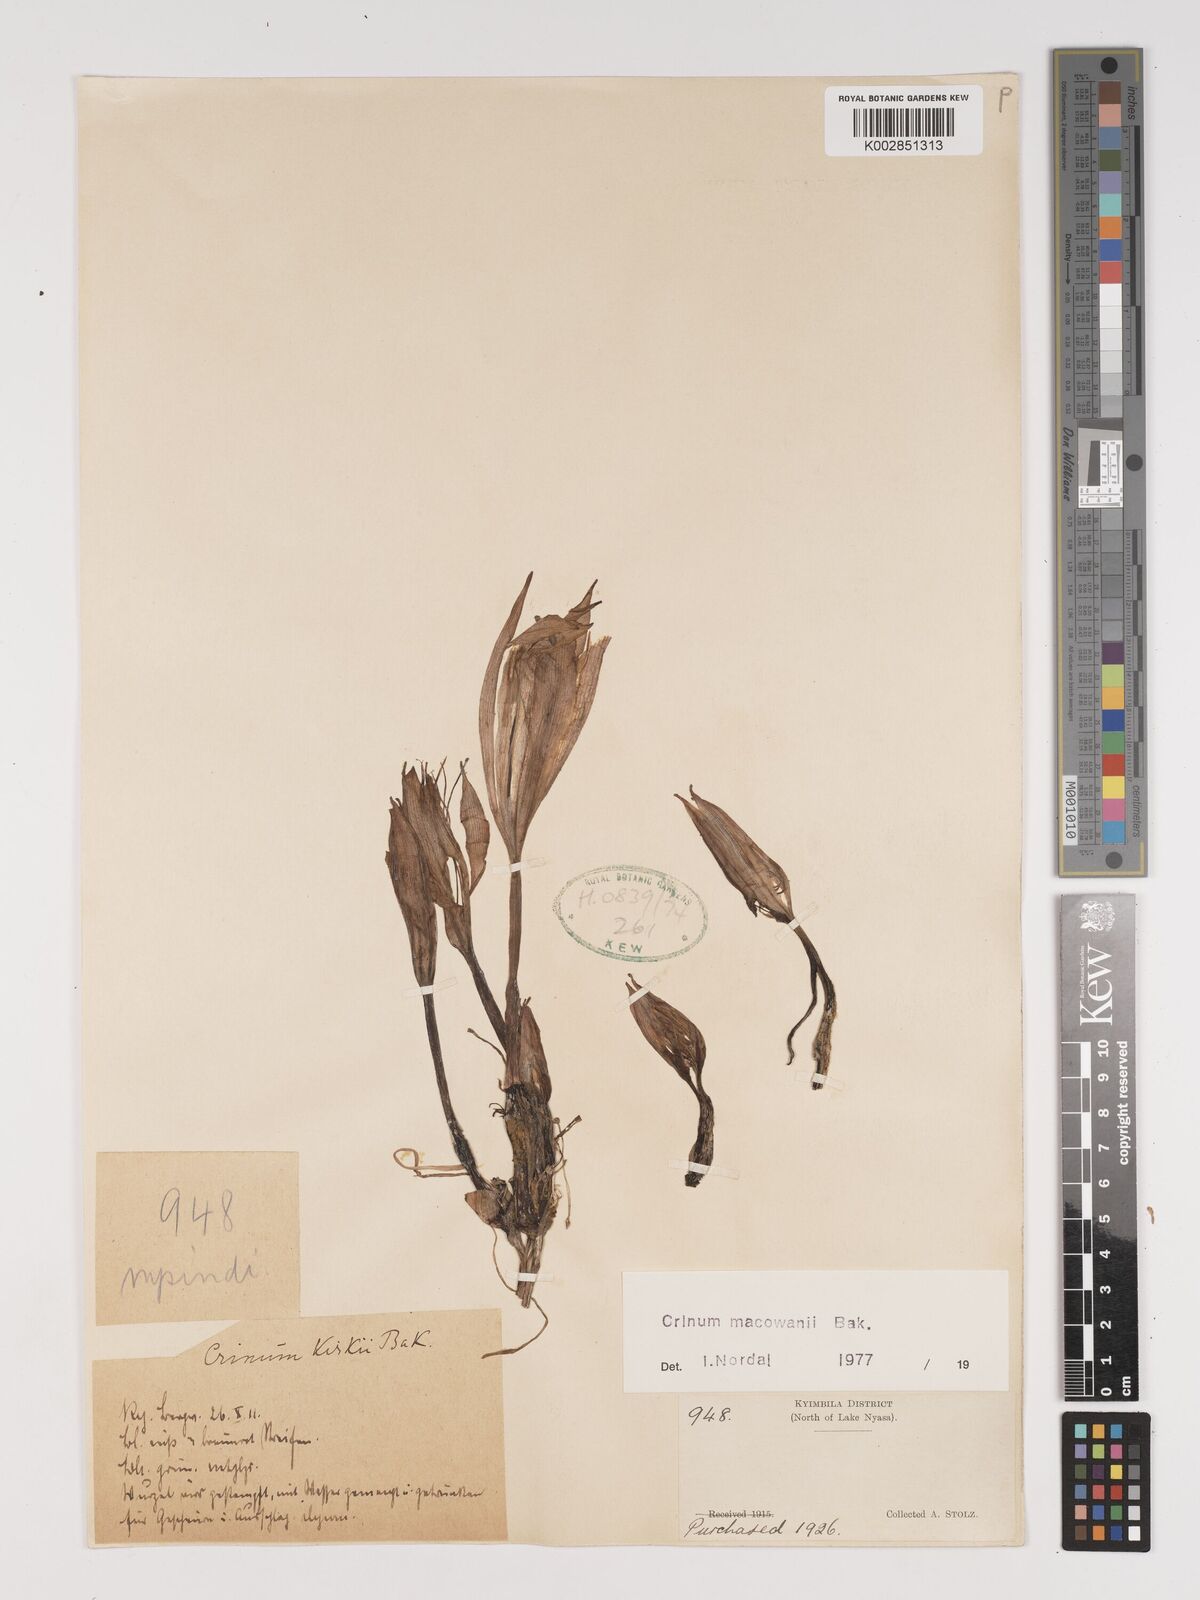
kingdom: Plantae
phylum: Tracheophyta
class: Liliopsida
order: Asparagales
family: Amaryllidaceae
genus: Crinum
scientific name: Crinum macowanii
